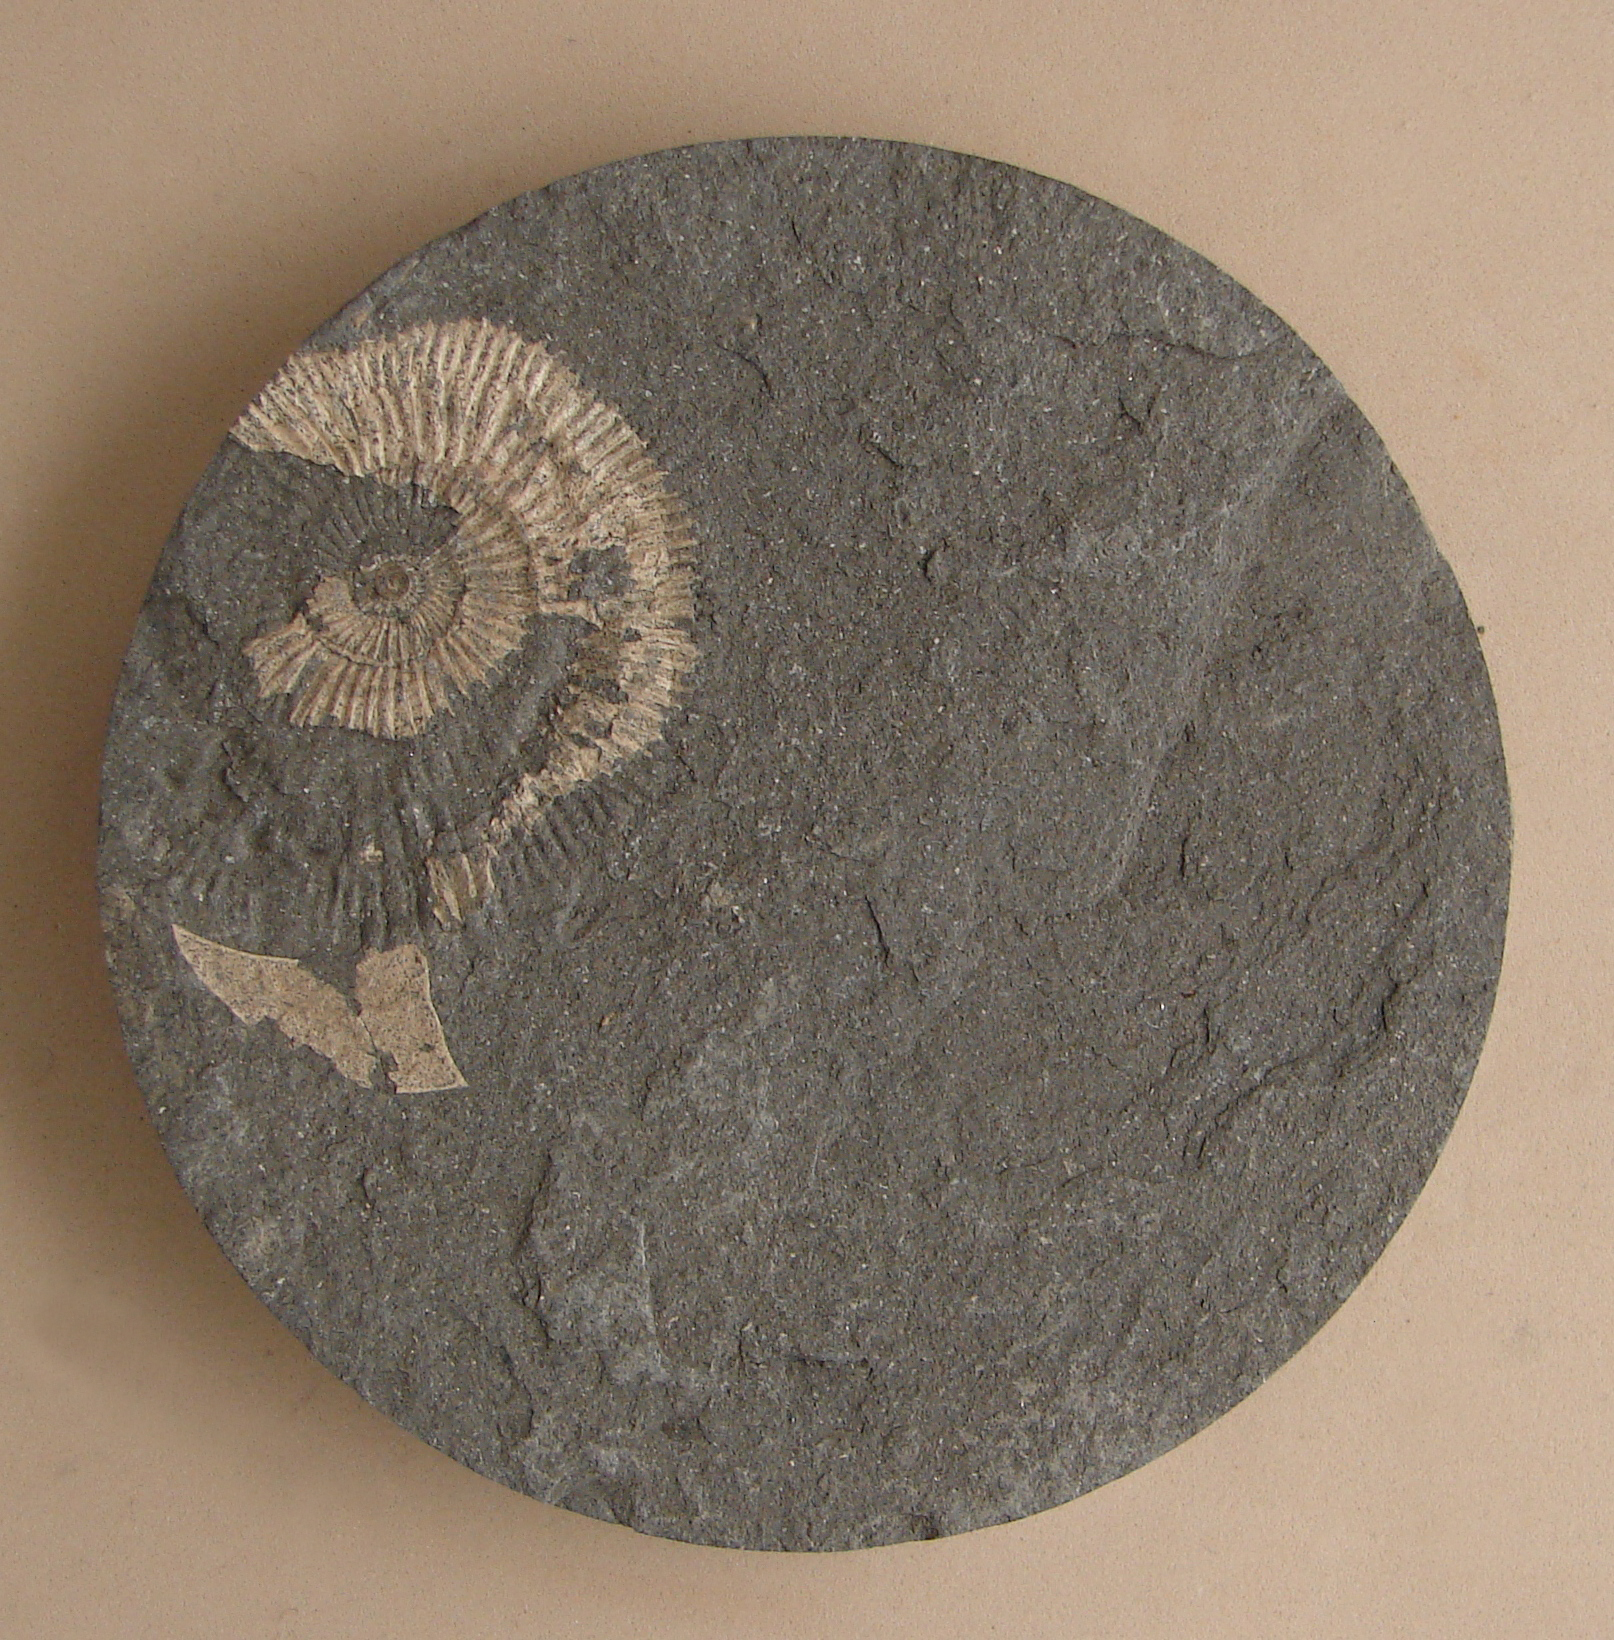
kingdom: Animalia
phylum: Mollusca
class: Cephalopoda
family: Dactylioceratidae
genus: Dactylioceras
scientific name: Dactylioceras
